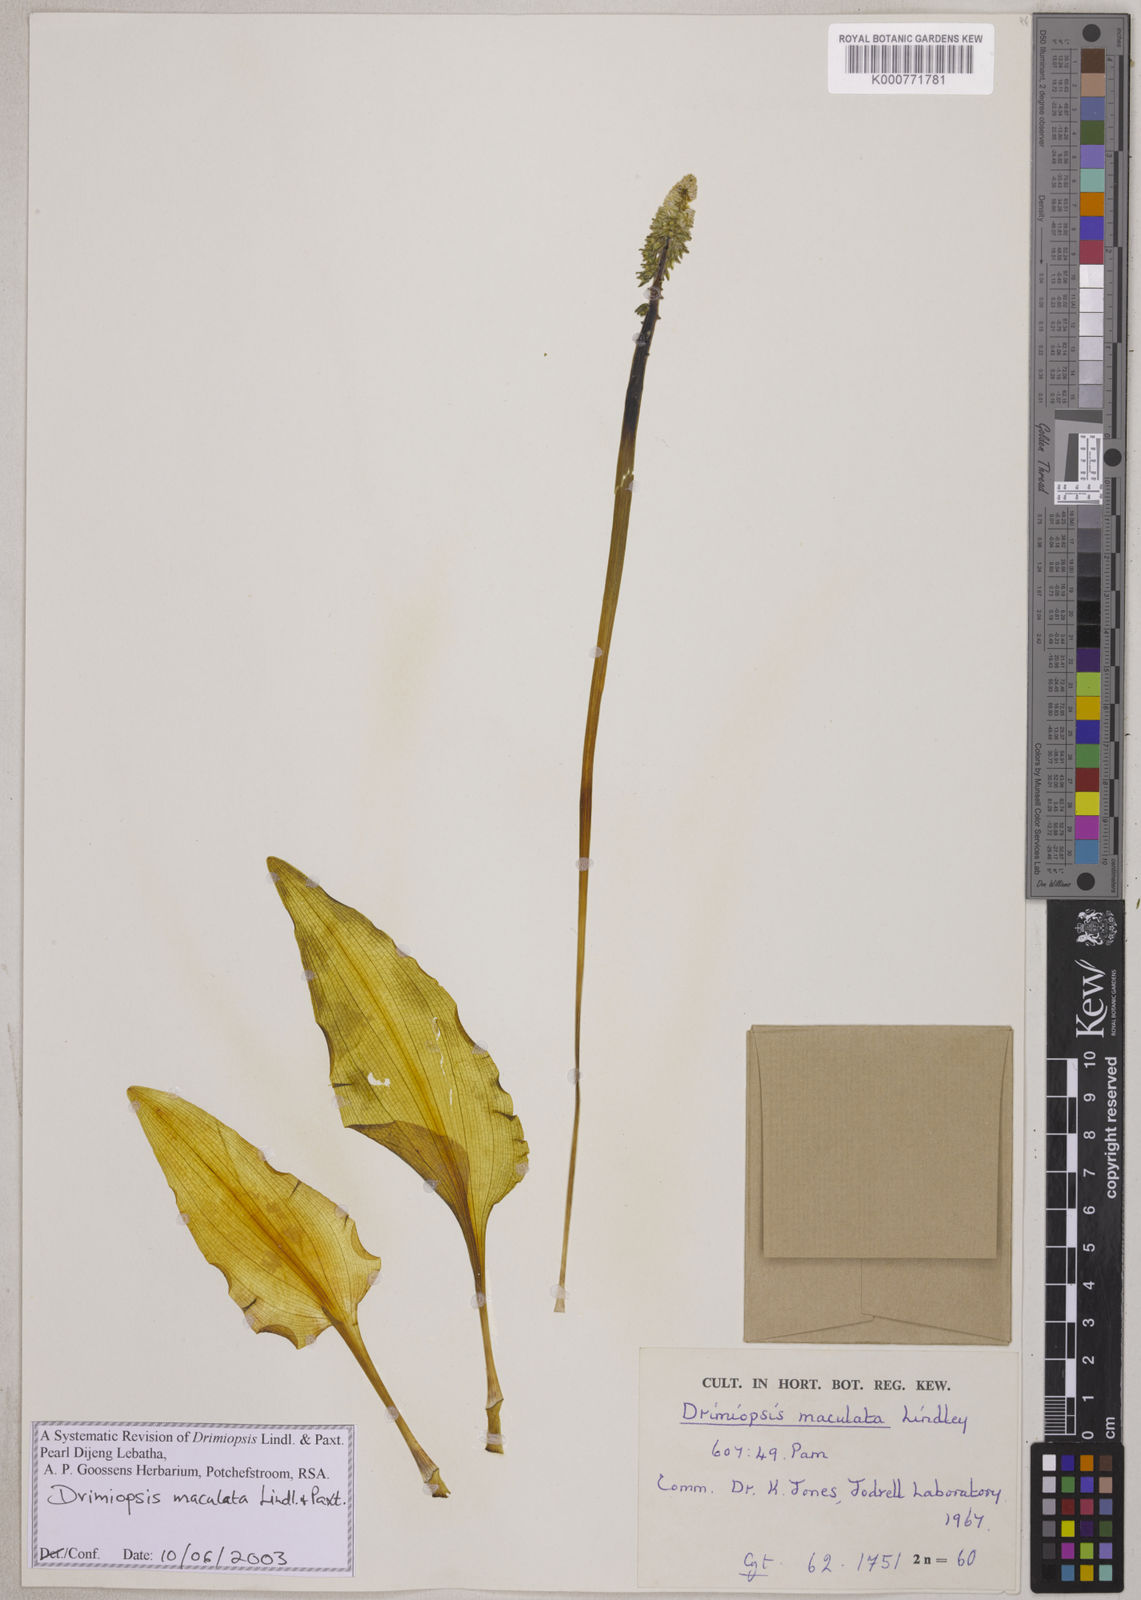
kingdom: Plantae
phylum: Tracheophyta
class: Liliopsida
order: Asparagales
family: Asparagaceae
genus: Drimiopsis
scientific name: Drimiopsis maculata
